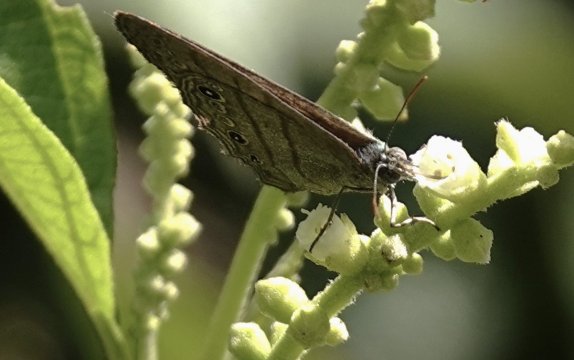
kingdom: Animalia
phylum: Arthropoda
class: Insecta
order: Lepidoptera
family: Nymphalidae
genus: Hermeuptychia
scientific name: Hermeuptychia hermes
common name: Hermes Satyr
